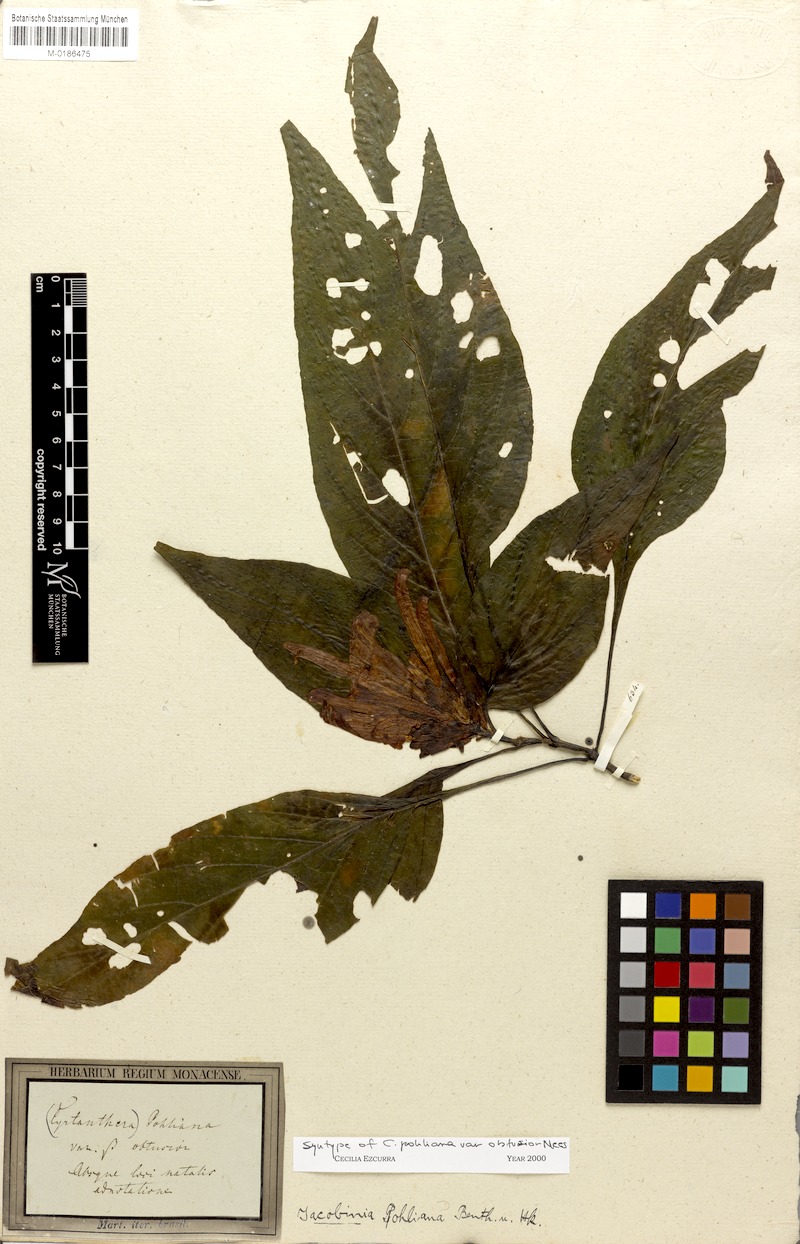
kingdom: Plantae
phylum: Tracheophyta
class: Magnoliopsida
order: Lamiales
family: Acanthaceae
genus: Justicia
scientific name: Justicia carnea
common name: Brazilian-plume
